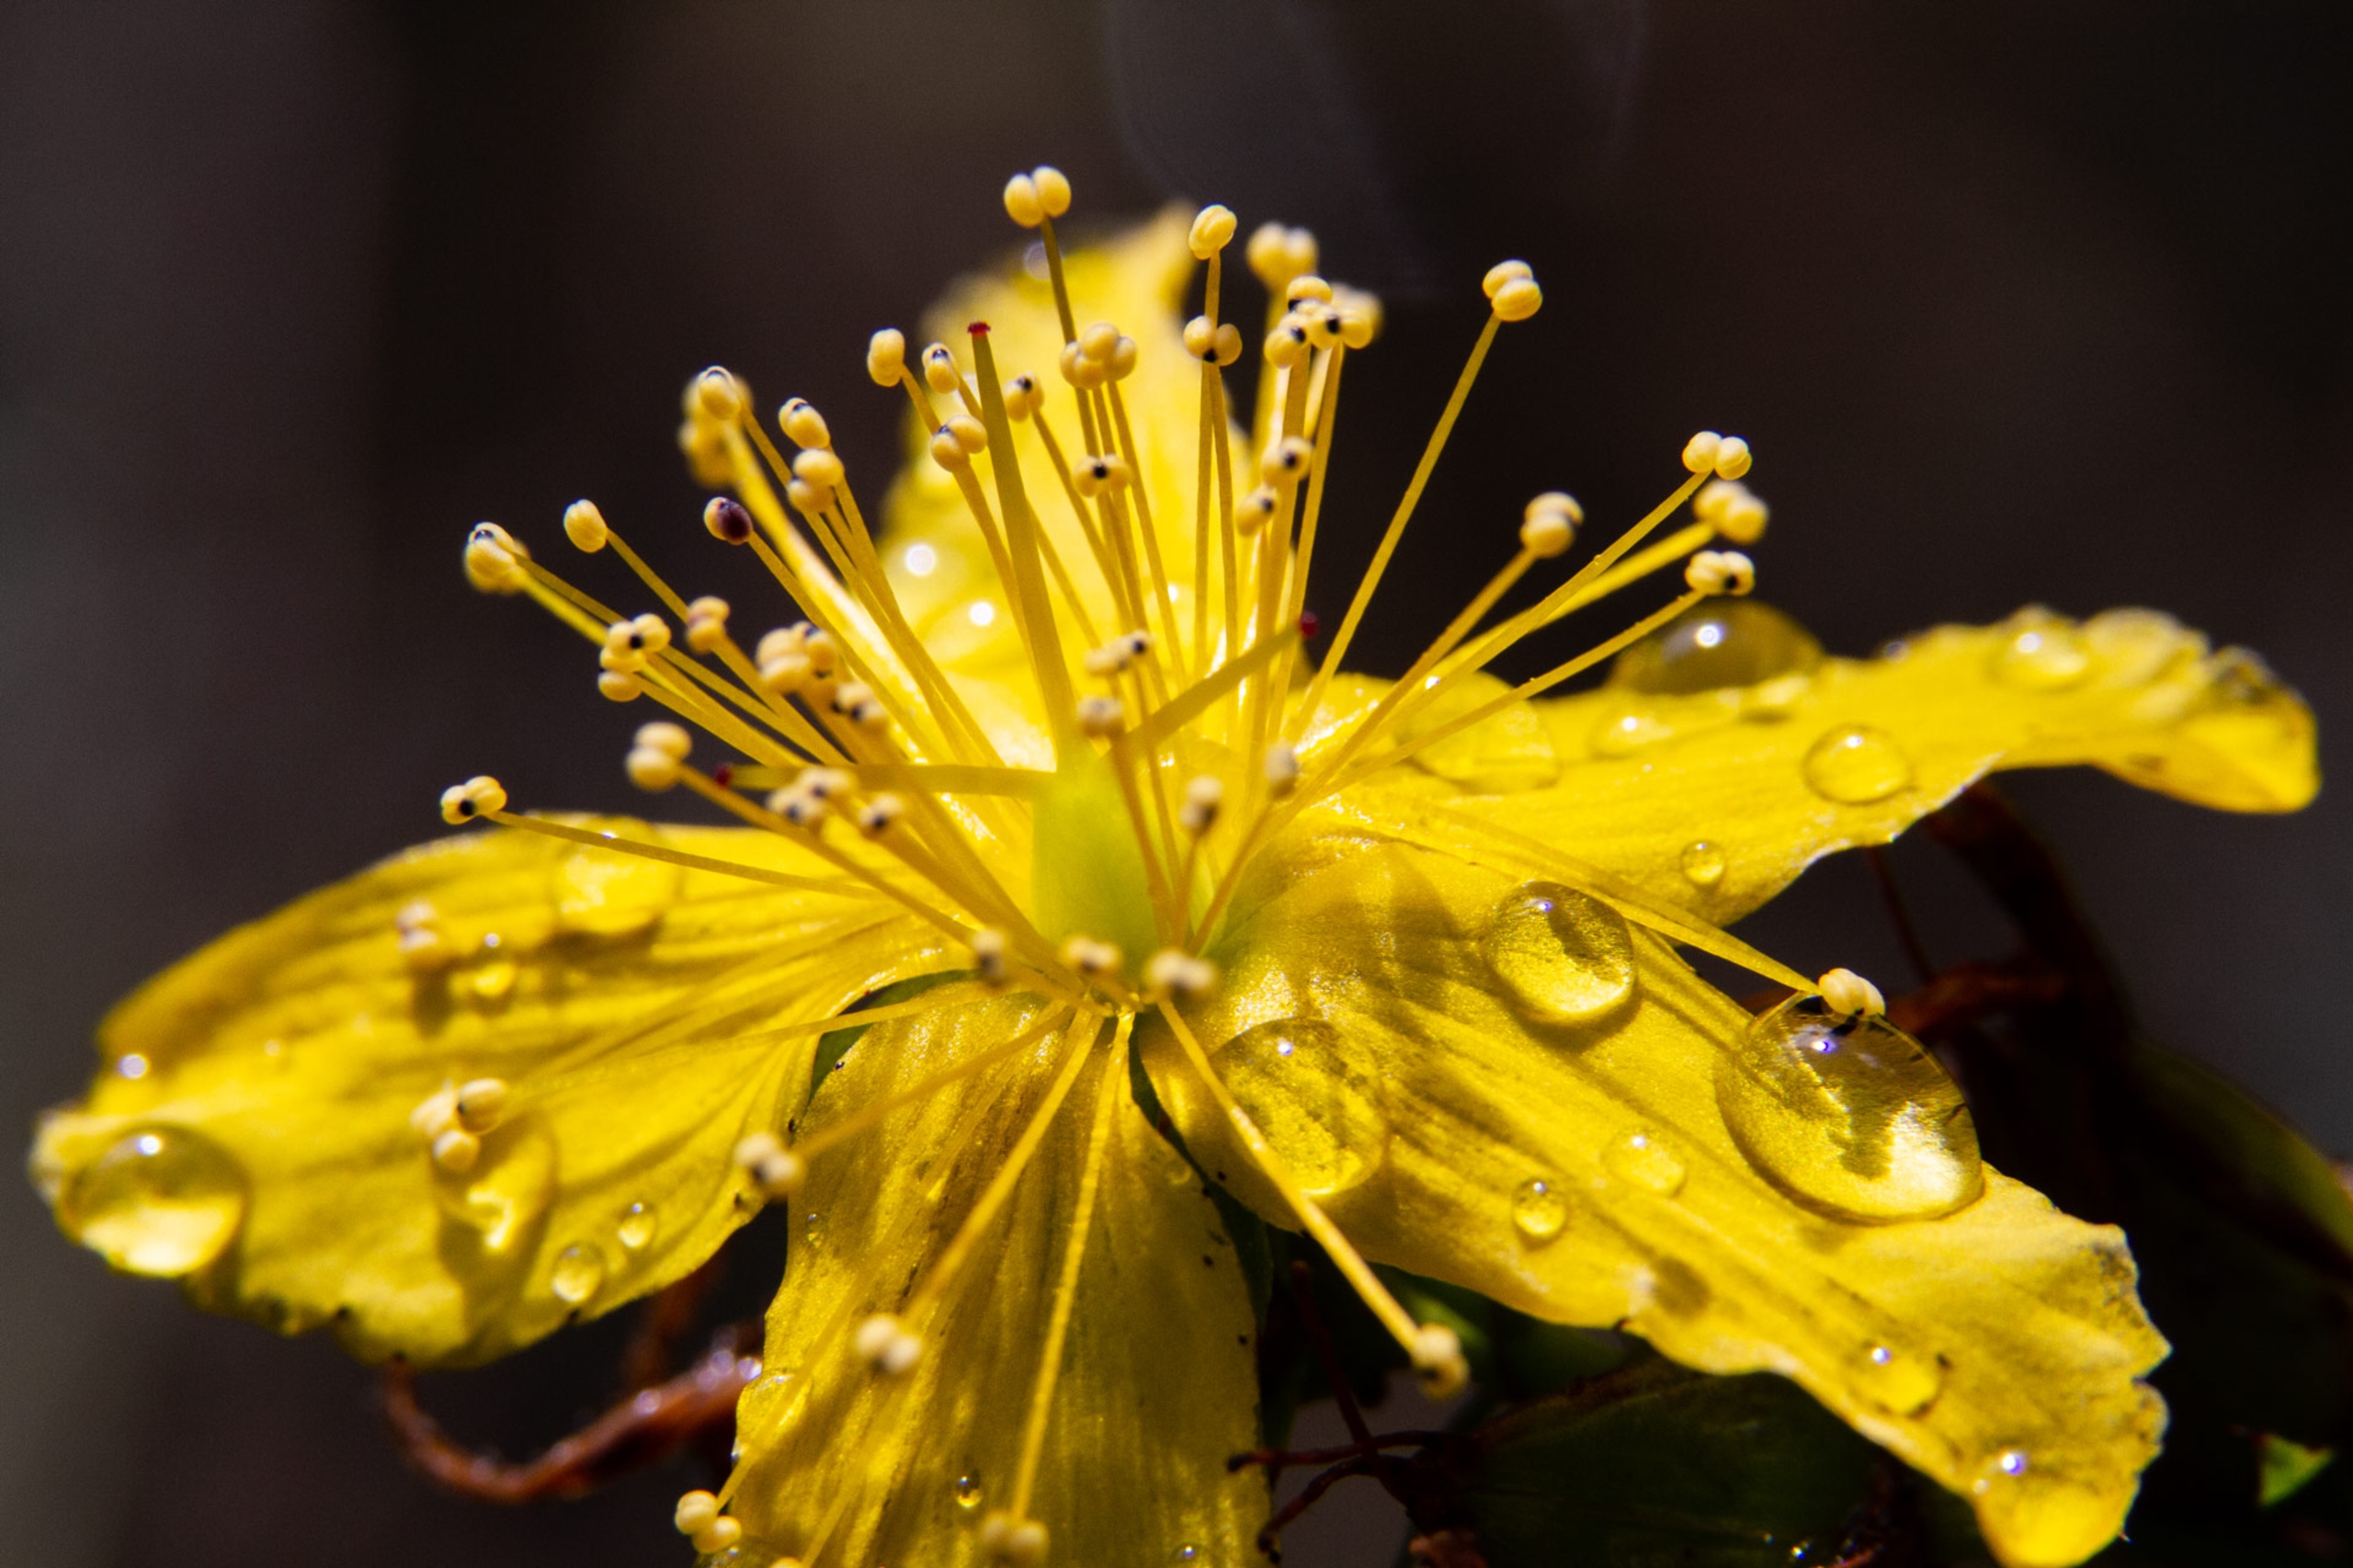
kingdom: Plantae
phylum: Tracheophyta
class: Magnoliopsida
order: Malpighiales
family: Hypericaceae
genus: Hypericum
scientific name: Hypericum perforatum
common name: Prikbladet perikon
